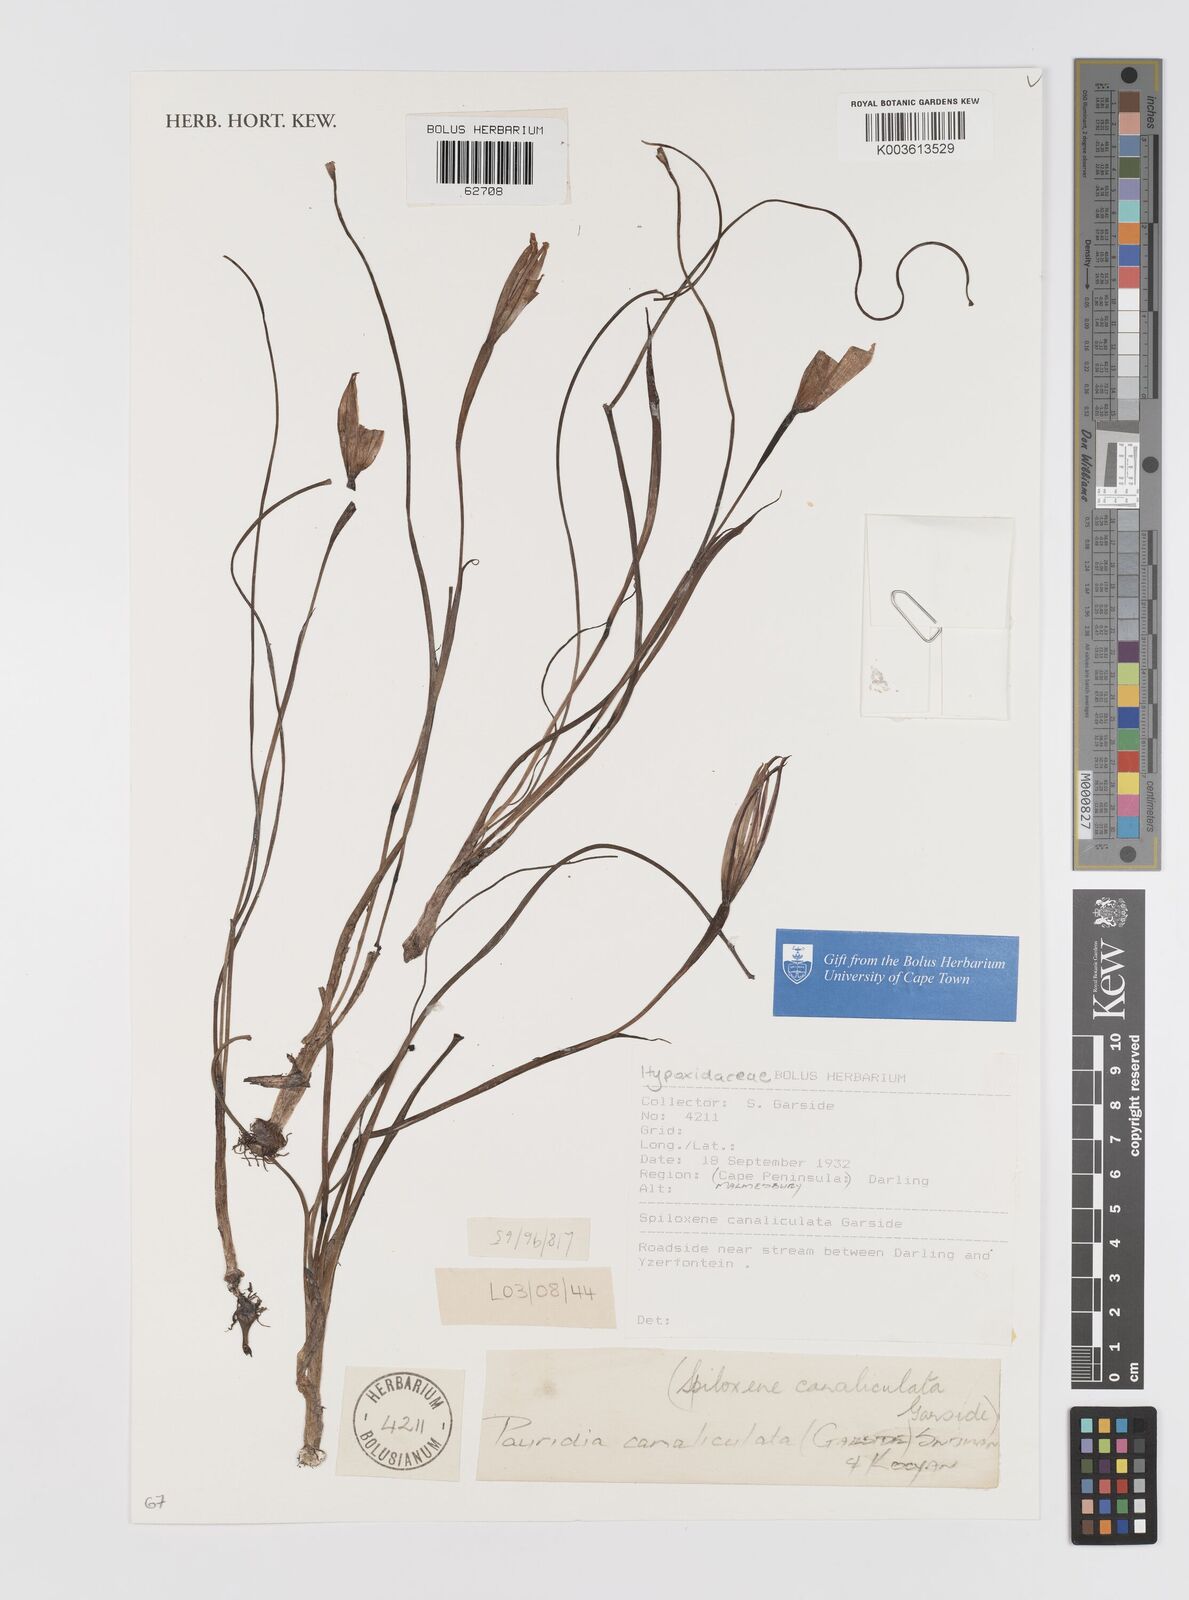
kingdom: Plantae
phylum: Tracheophyta
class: Liliopsida
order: Asparagales
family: Hypoxidaceae
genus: Pauridia
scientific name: Pauridia canaliculata
